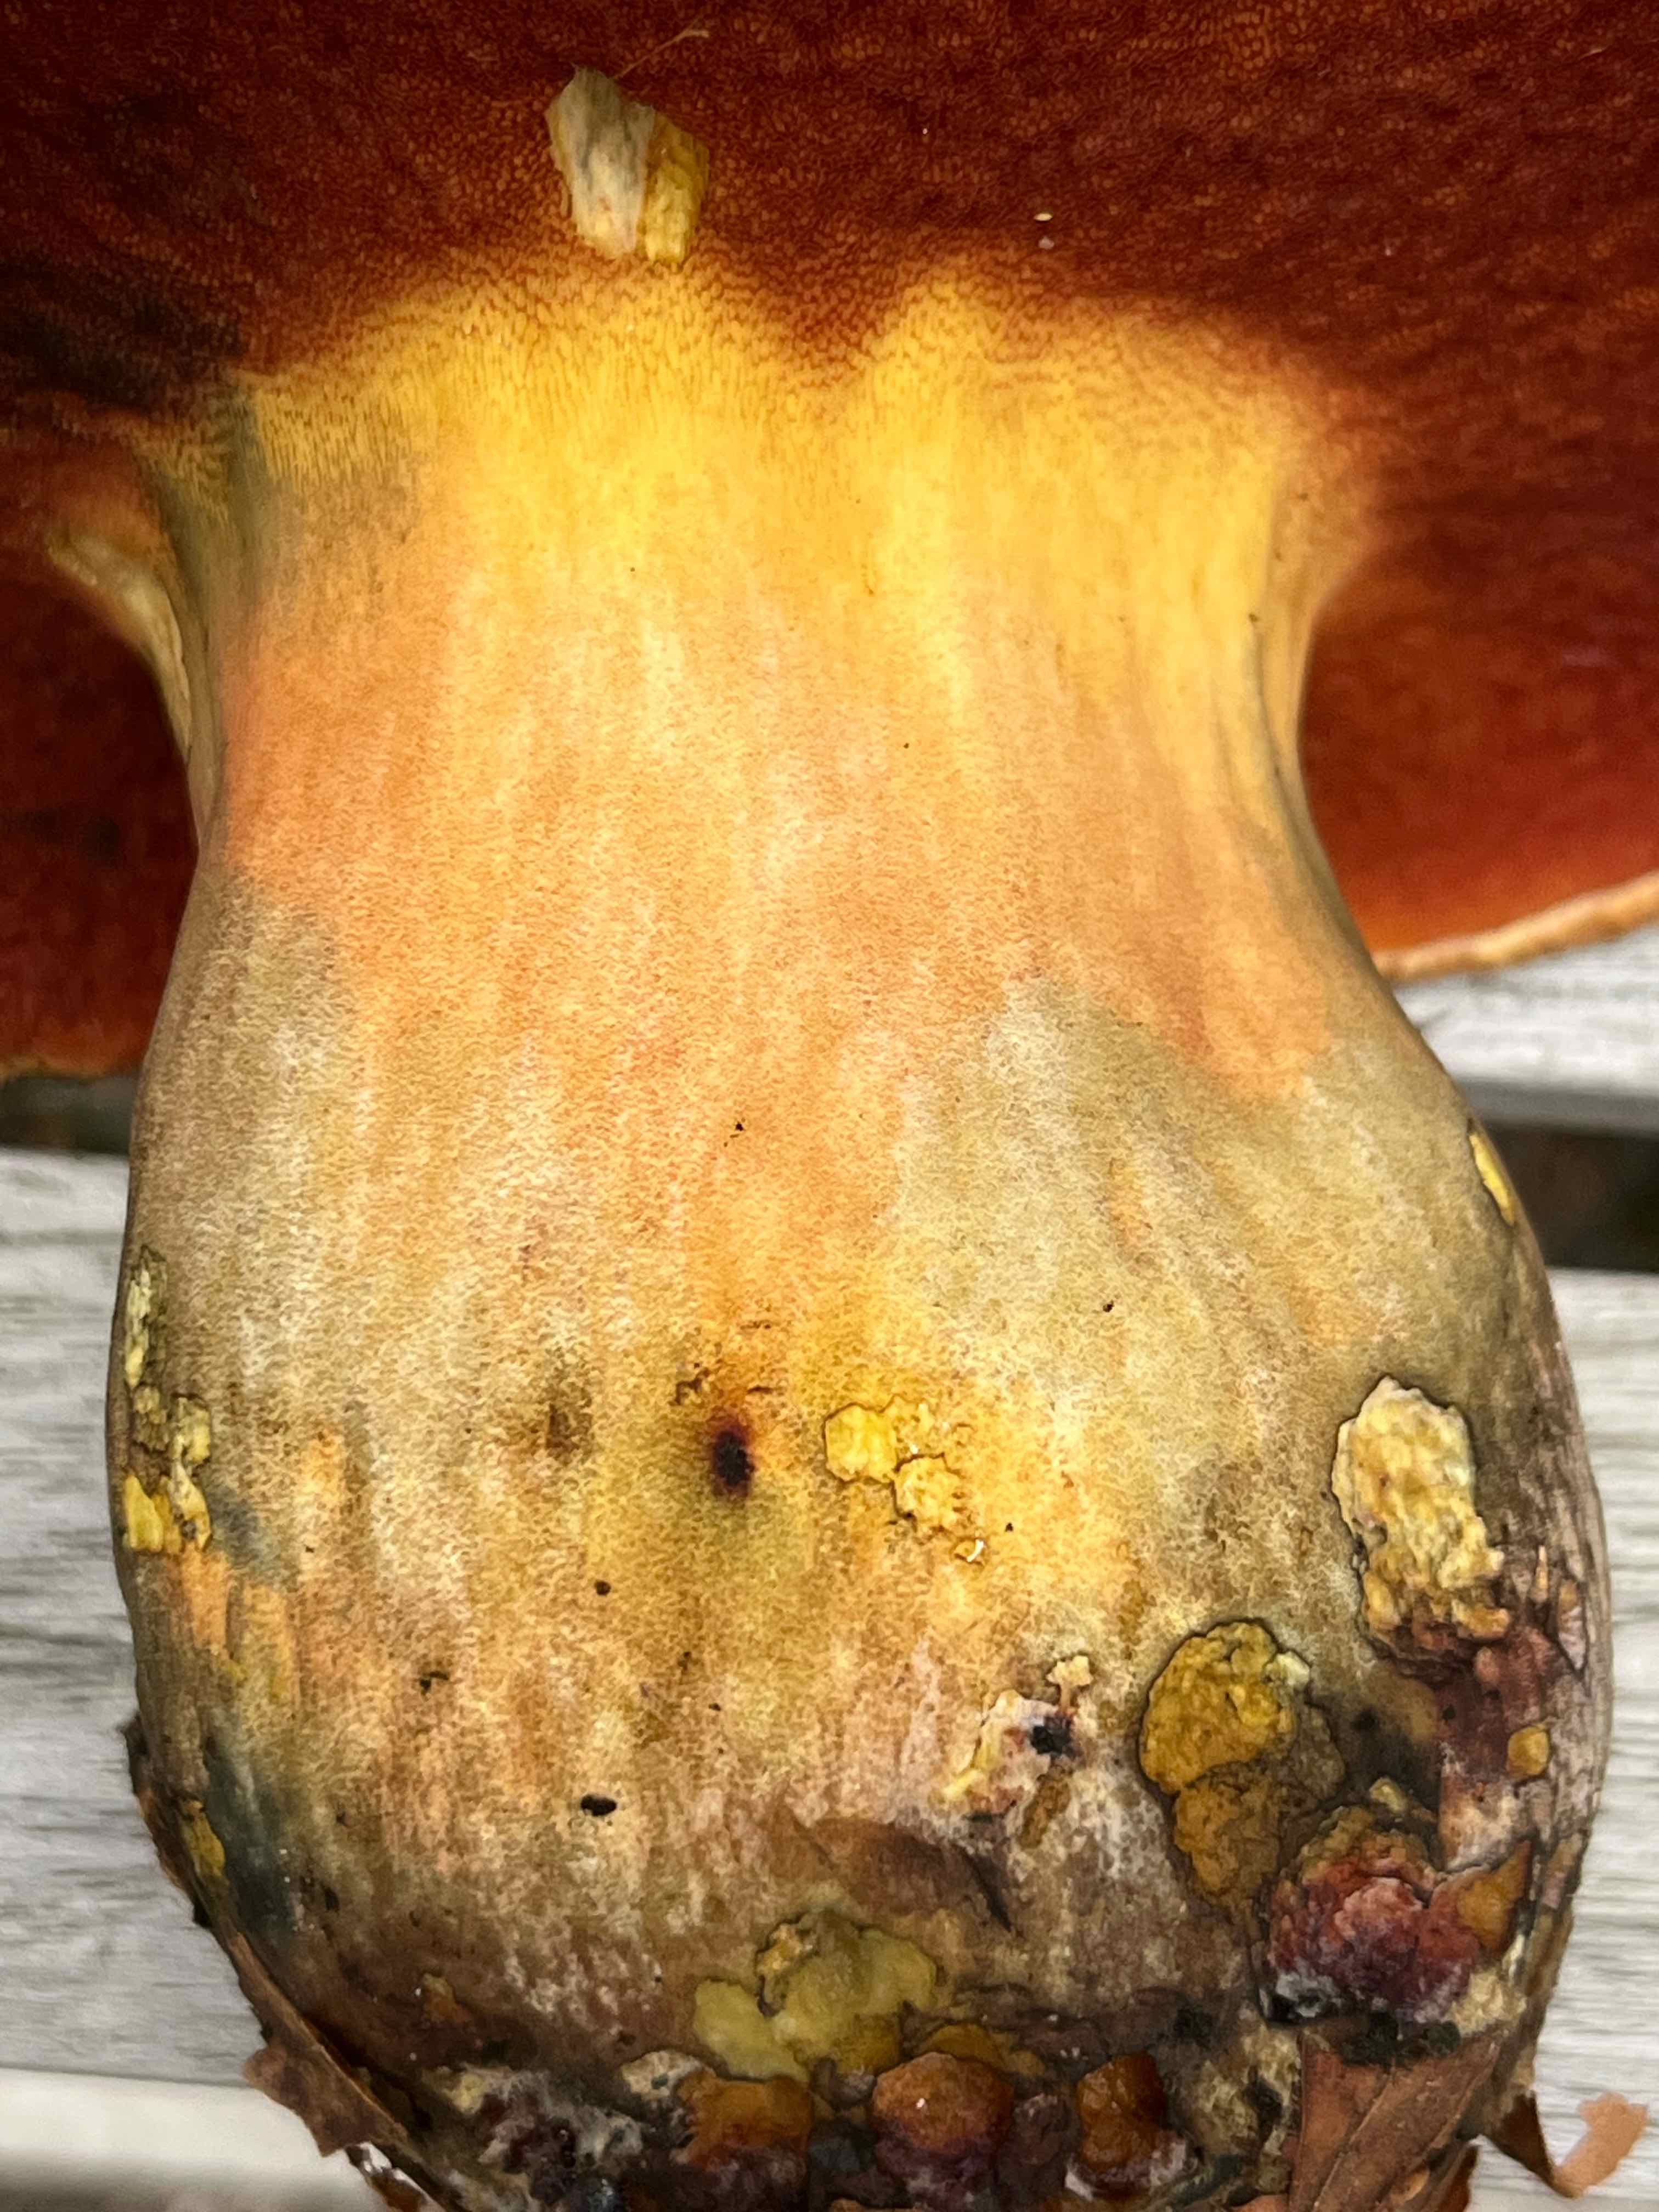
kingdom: Fungi
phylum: Basidiomycota
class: Agaricomycetes
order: Boletales
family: Boletaceae
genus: Neoboletus
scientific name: Neoboletus
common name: indigorørhat
